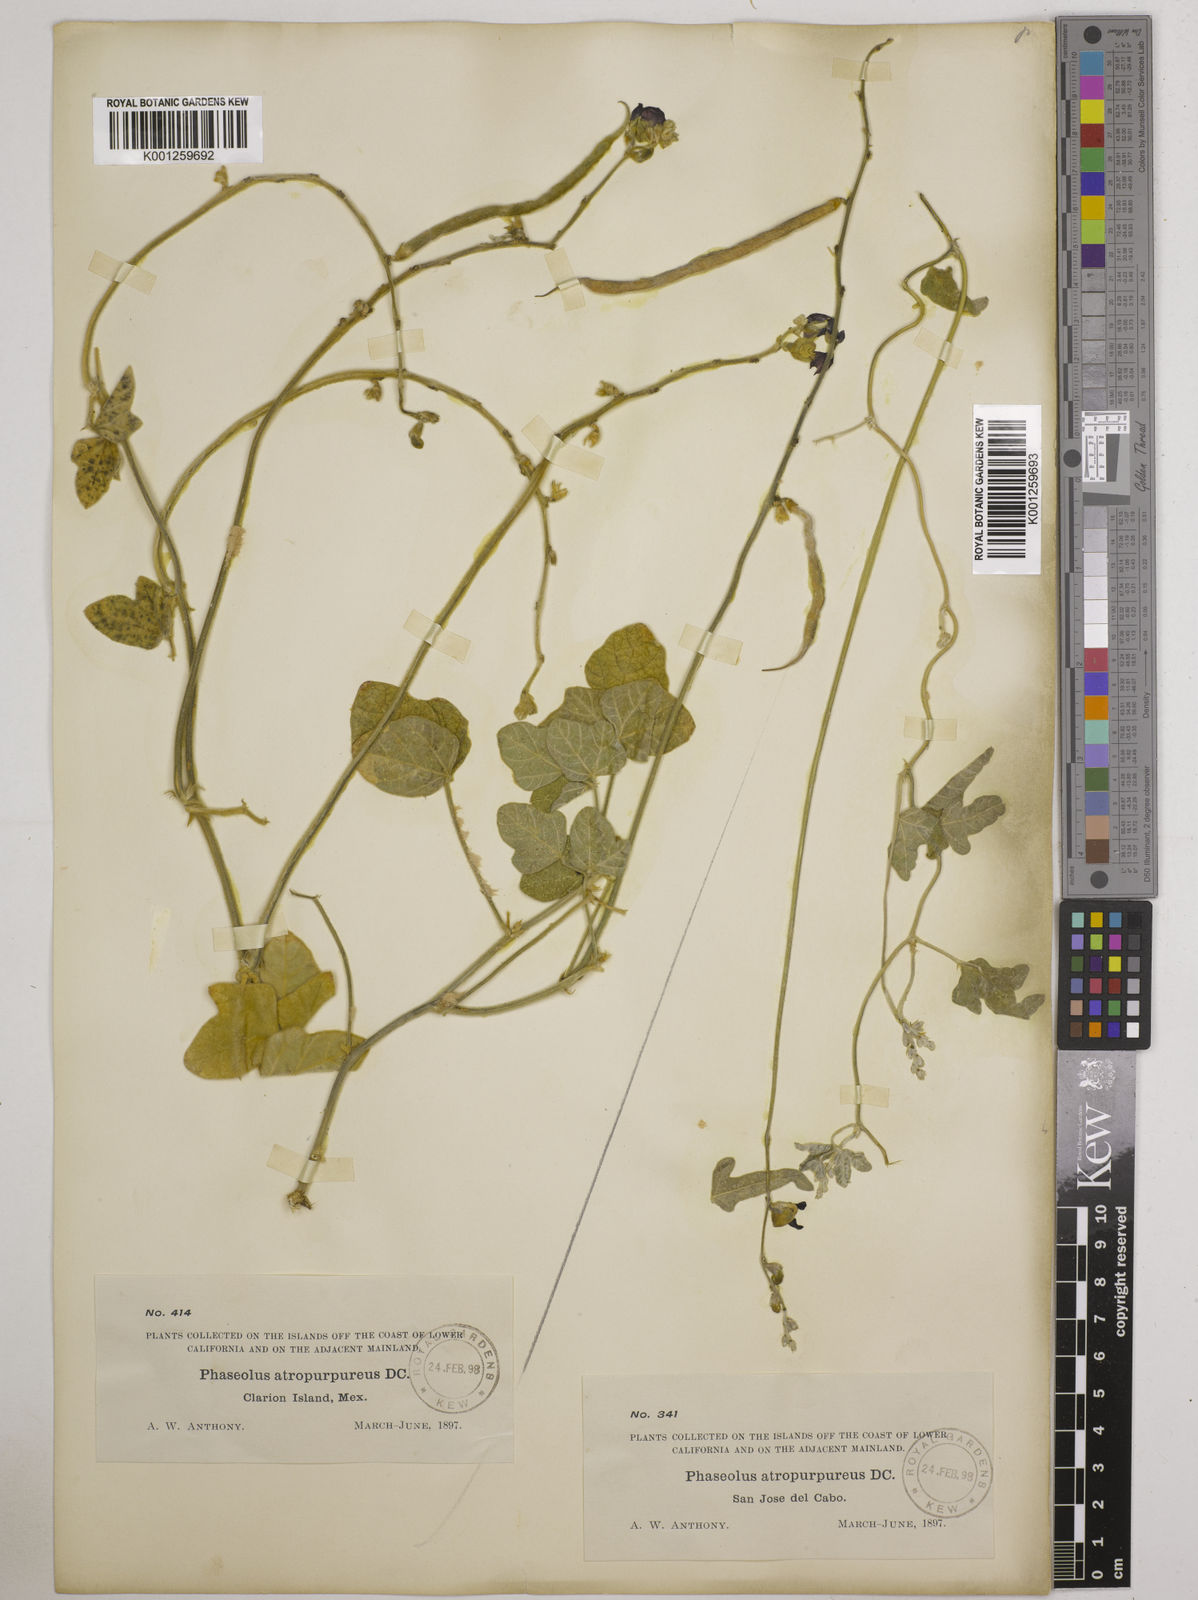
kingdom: Plantae
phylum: Tracheophyta
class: Magnoliopsida
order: Fabales
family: Fabaceae
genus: Macroptilium
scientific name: Macroptilium atropurpureum
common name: Purple bushbean
